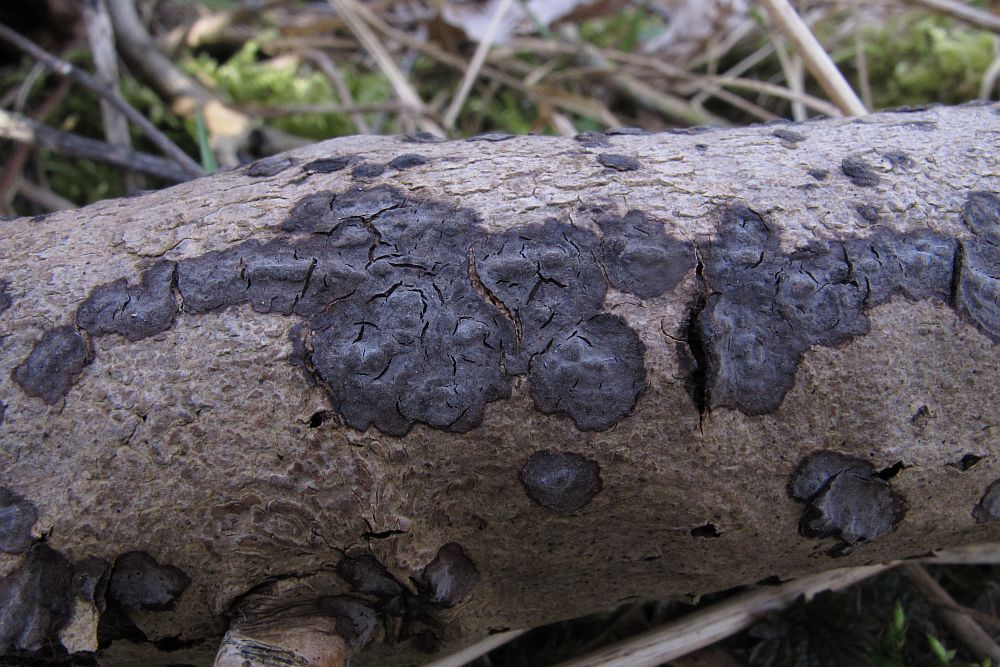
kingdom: Fungi
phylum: Basidiomycota
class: Agaricomycetes
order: Russulales
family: Peniophoraceae
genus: Peniophora
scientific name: Peniophora limitata
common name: mørkrandet voksskind
